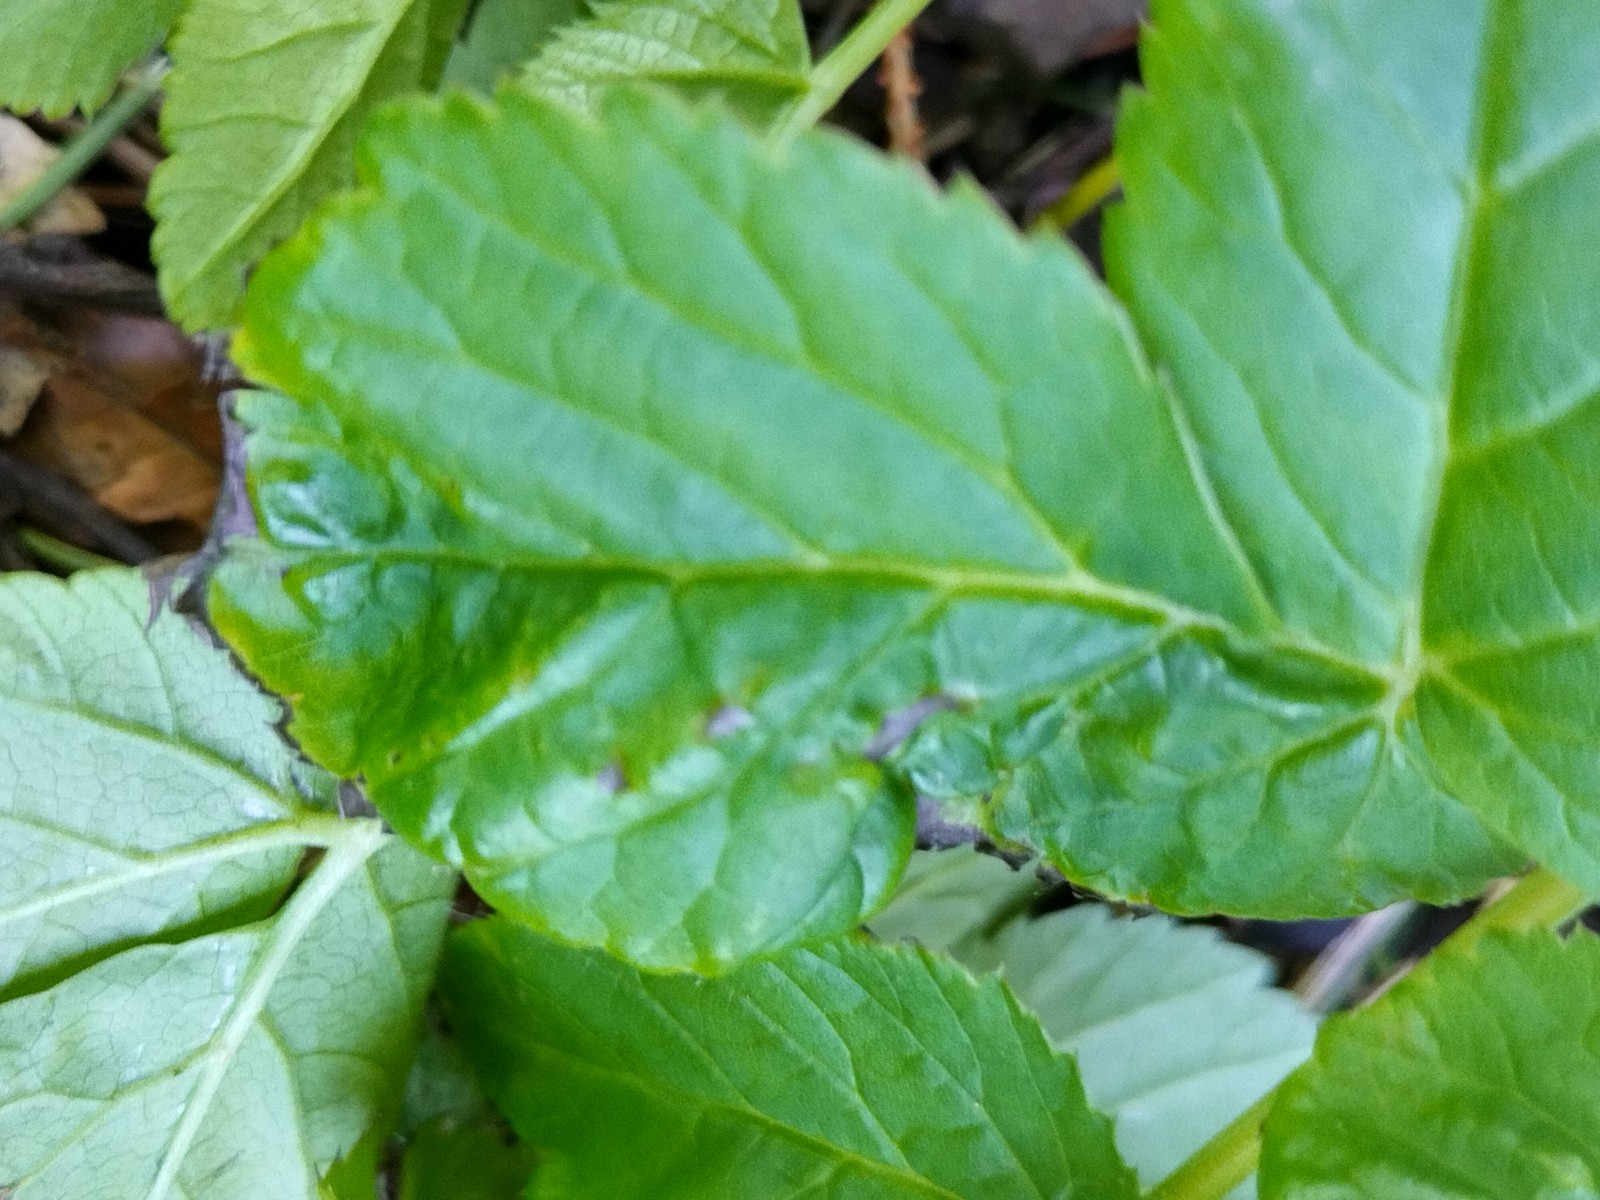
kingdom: Fungi
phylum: Ascomycota
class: Taphrinomycetes
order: Taphrinales
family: Taphrinaceae
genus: Protomyces
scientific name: Protomyces macrosporus
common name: skvalderkål-vablesæk
